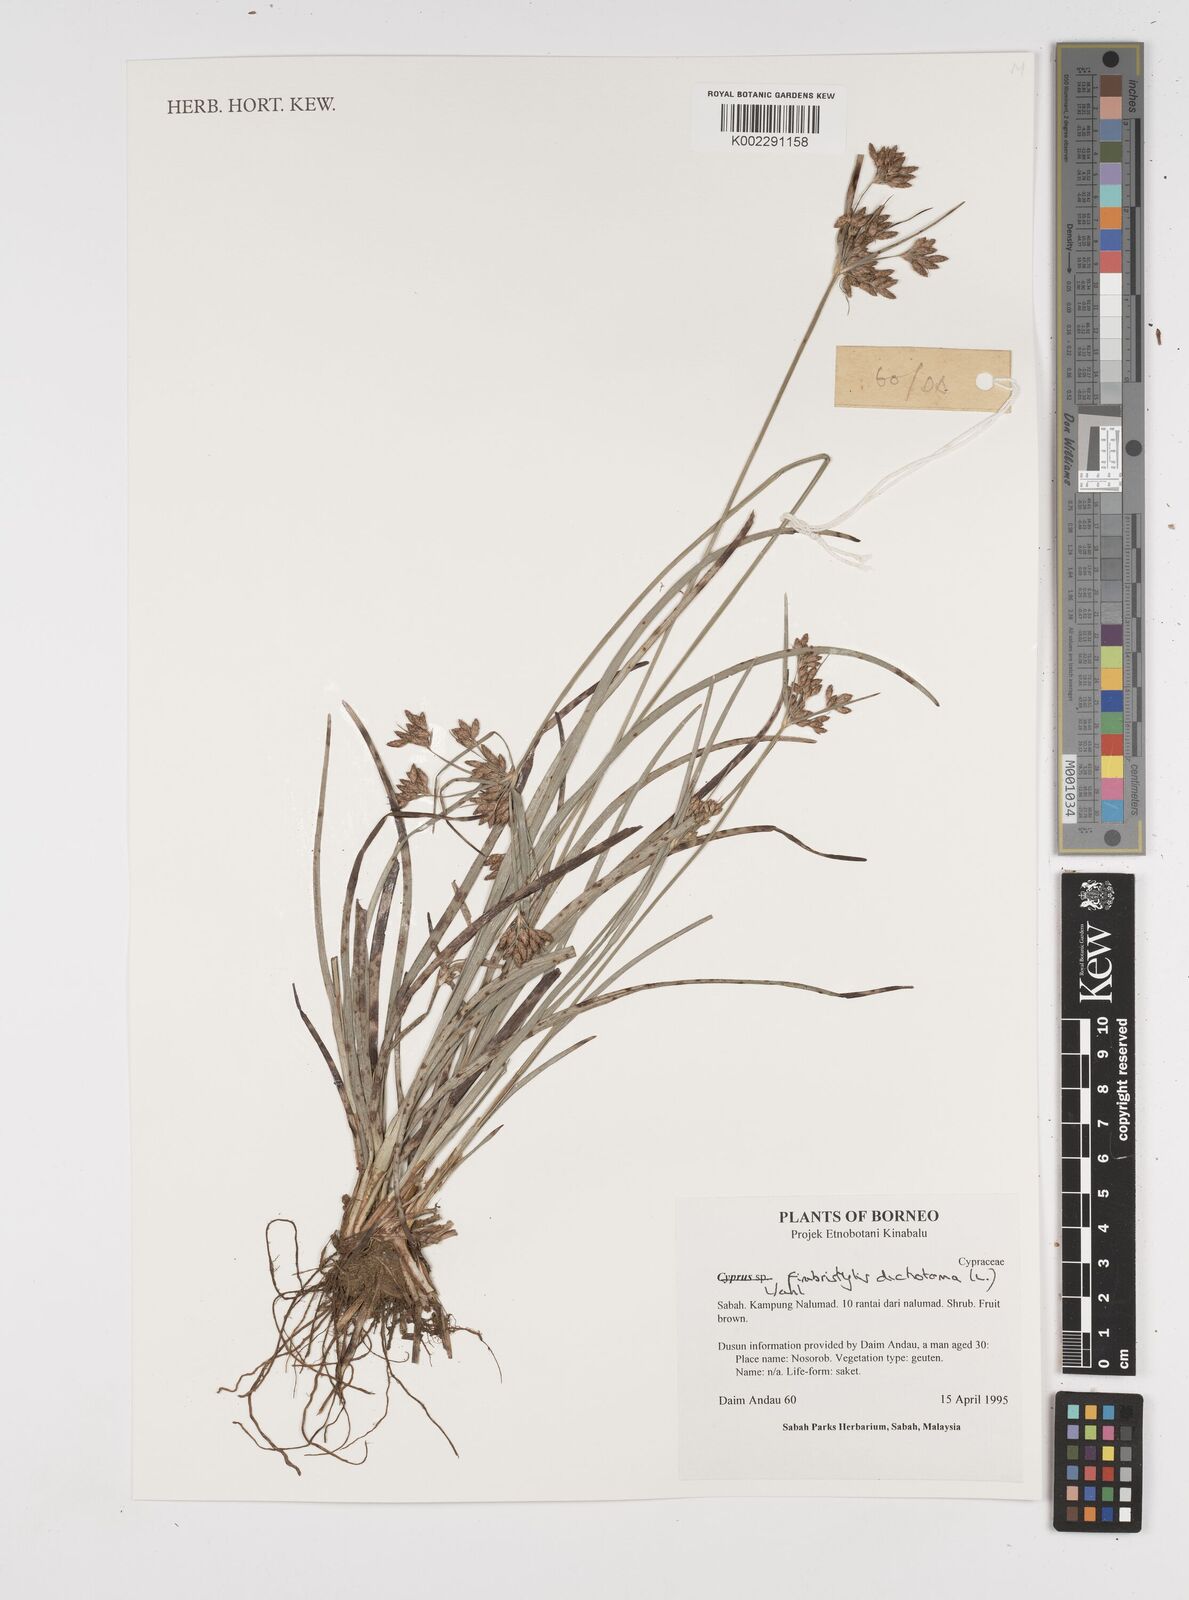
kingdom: Plantae
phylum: Tracheophyta
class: Liliopsida
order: Poales
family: Cyperaceae
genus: Fimbristylis
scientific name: Fimbristylis dichotoma
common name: Forked fimbry
